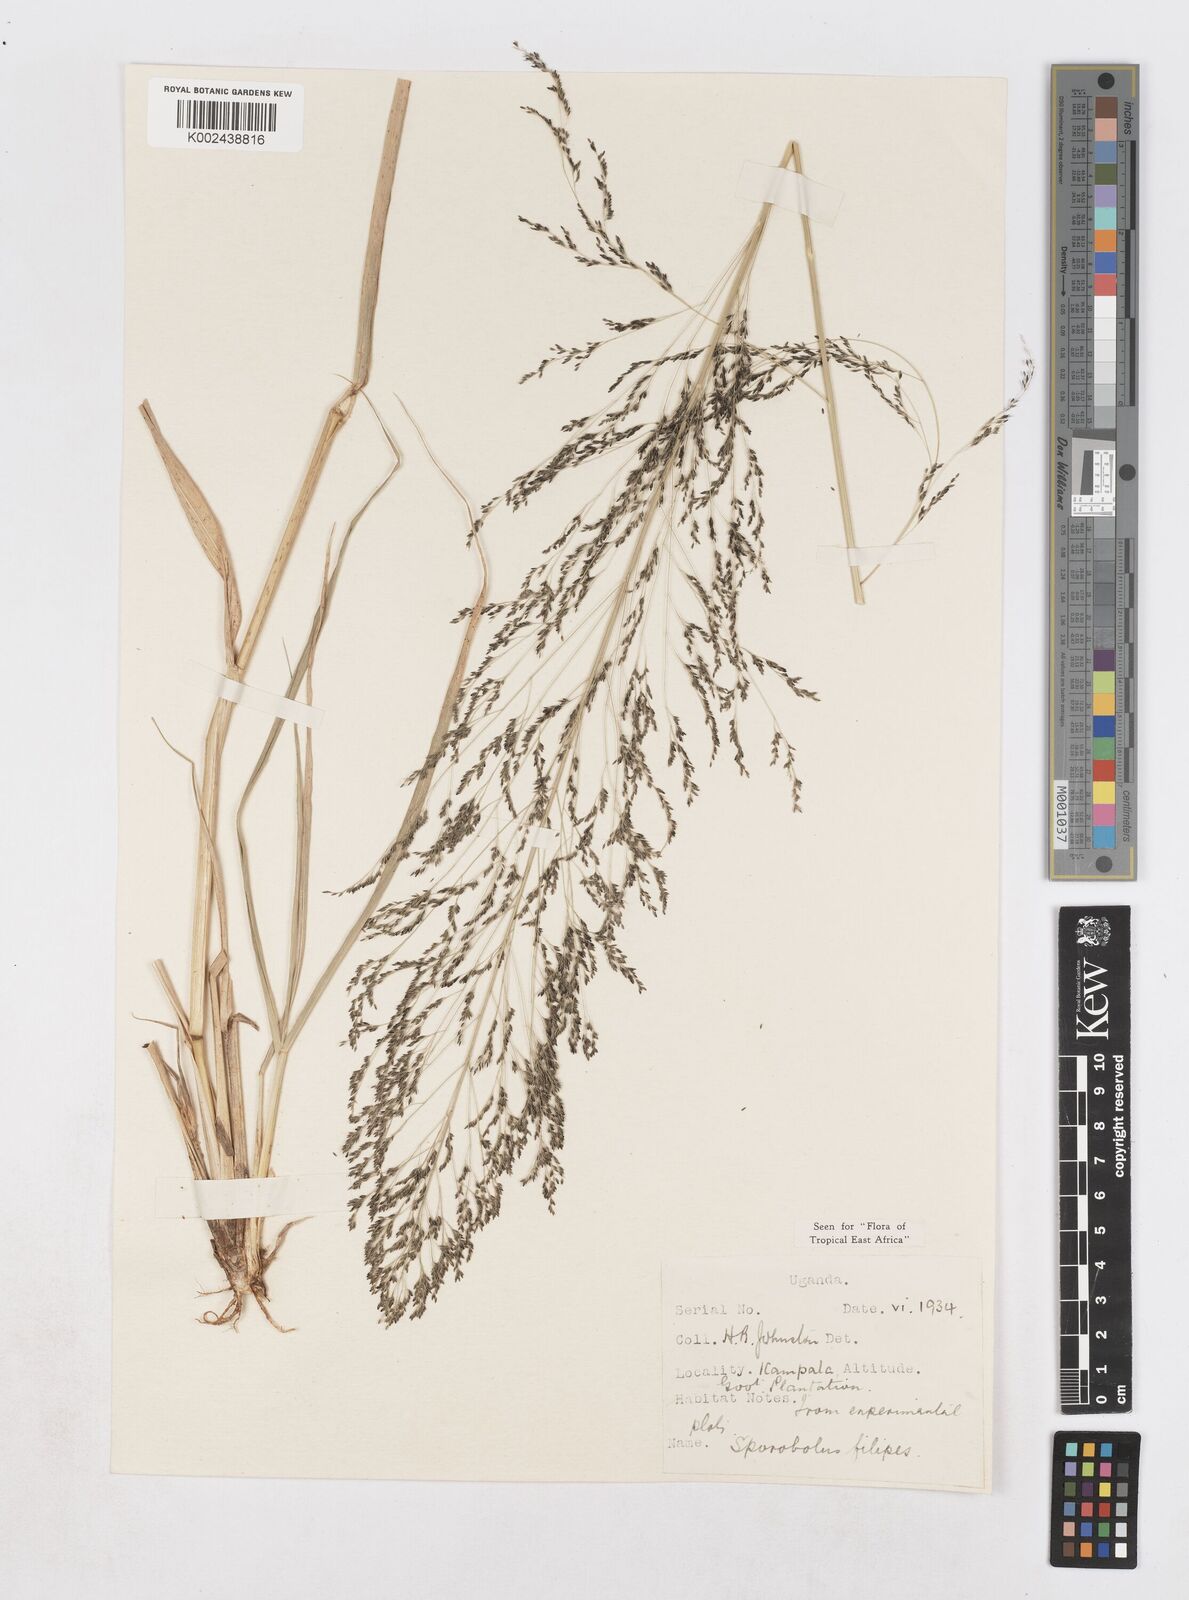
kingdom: Plantae
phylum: Tracheophyta
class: Liliopsida
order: Poales
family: Poaceae
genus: Sporobolus
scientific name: Sporobolus agrostoides
